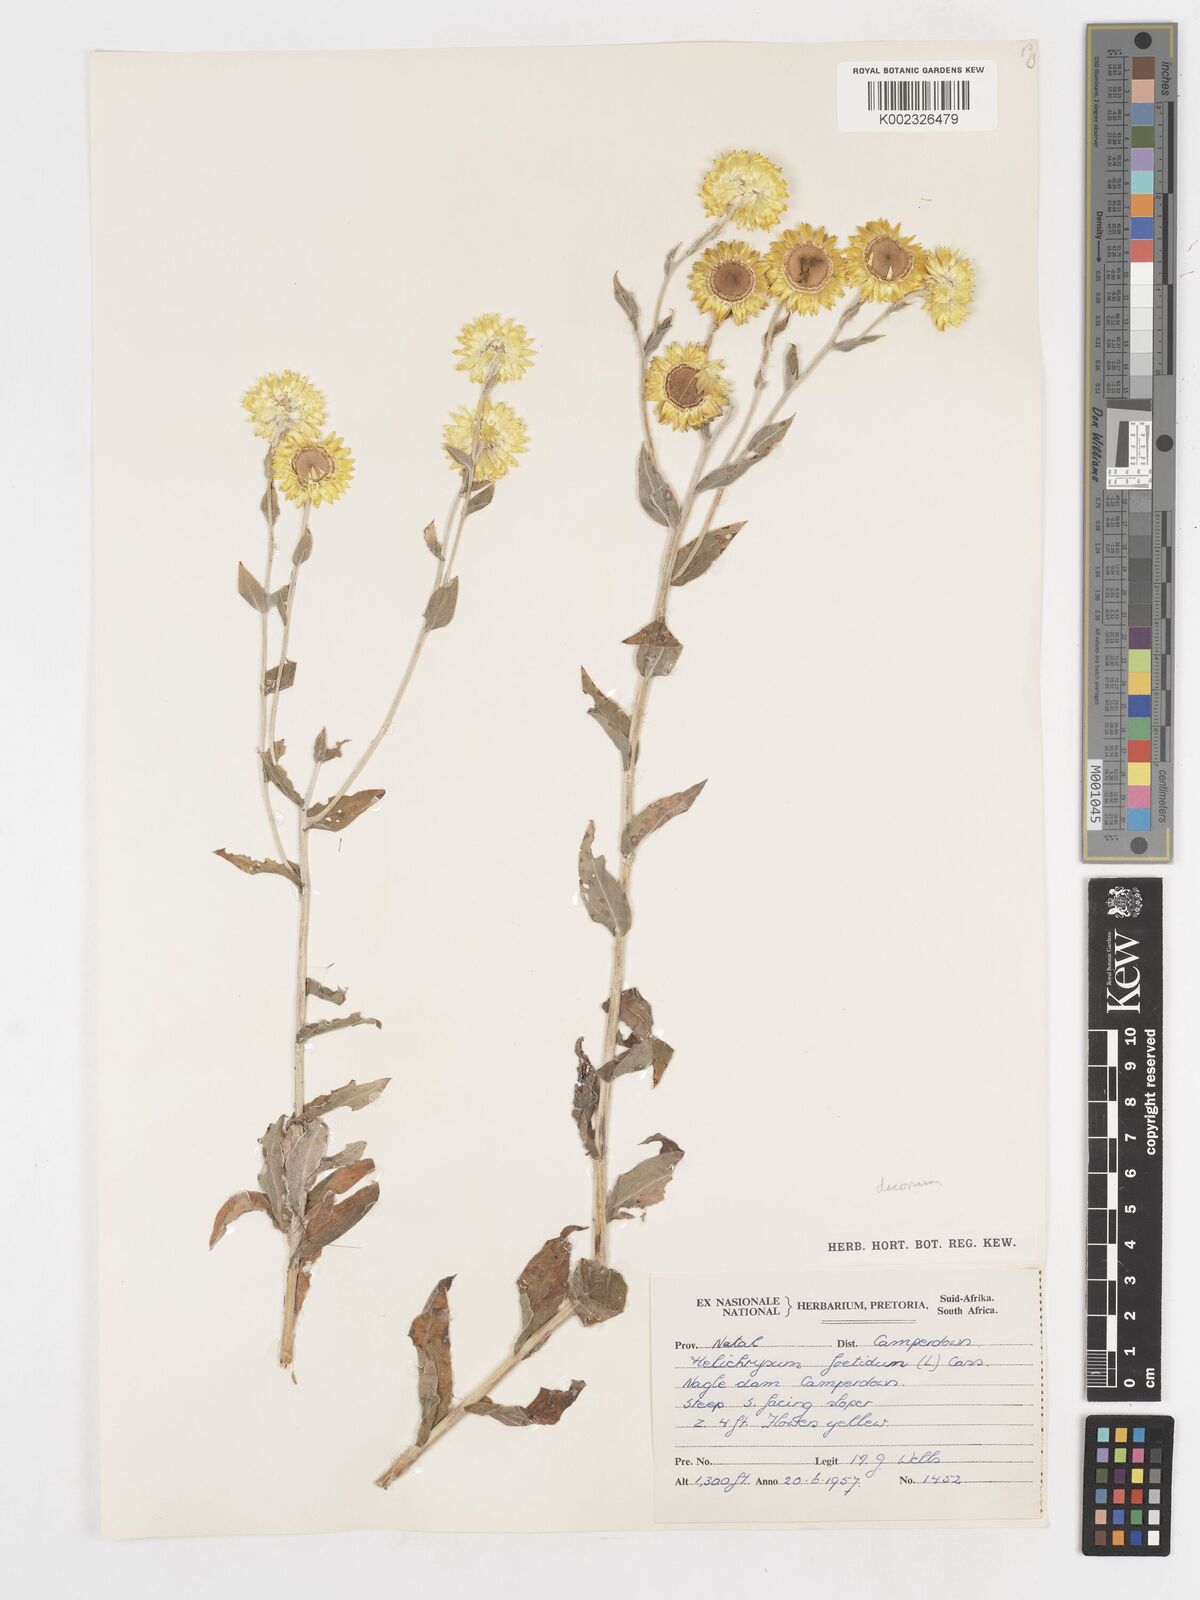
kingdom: Plantae
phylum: Tracheophyta
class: Magnoliopsida
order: Asterales
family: Asteraceae
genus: Helichrysum
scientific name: Helichrysum decorum
